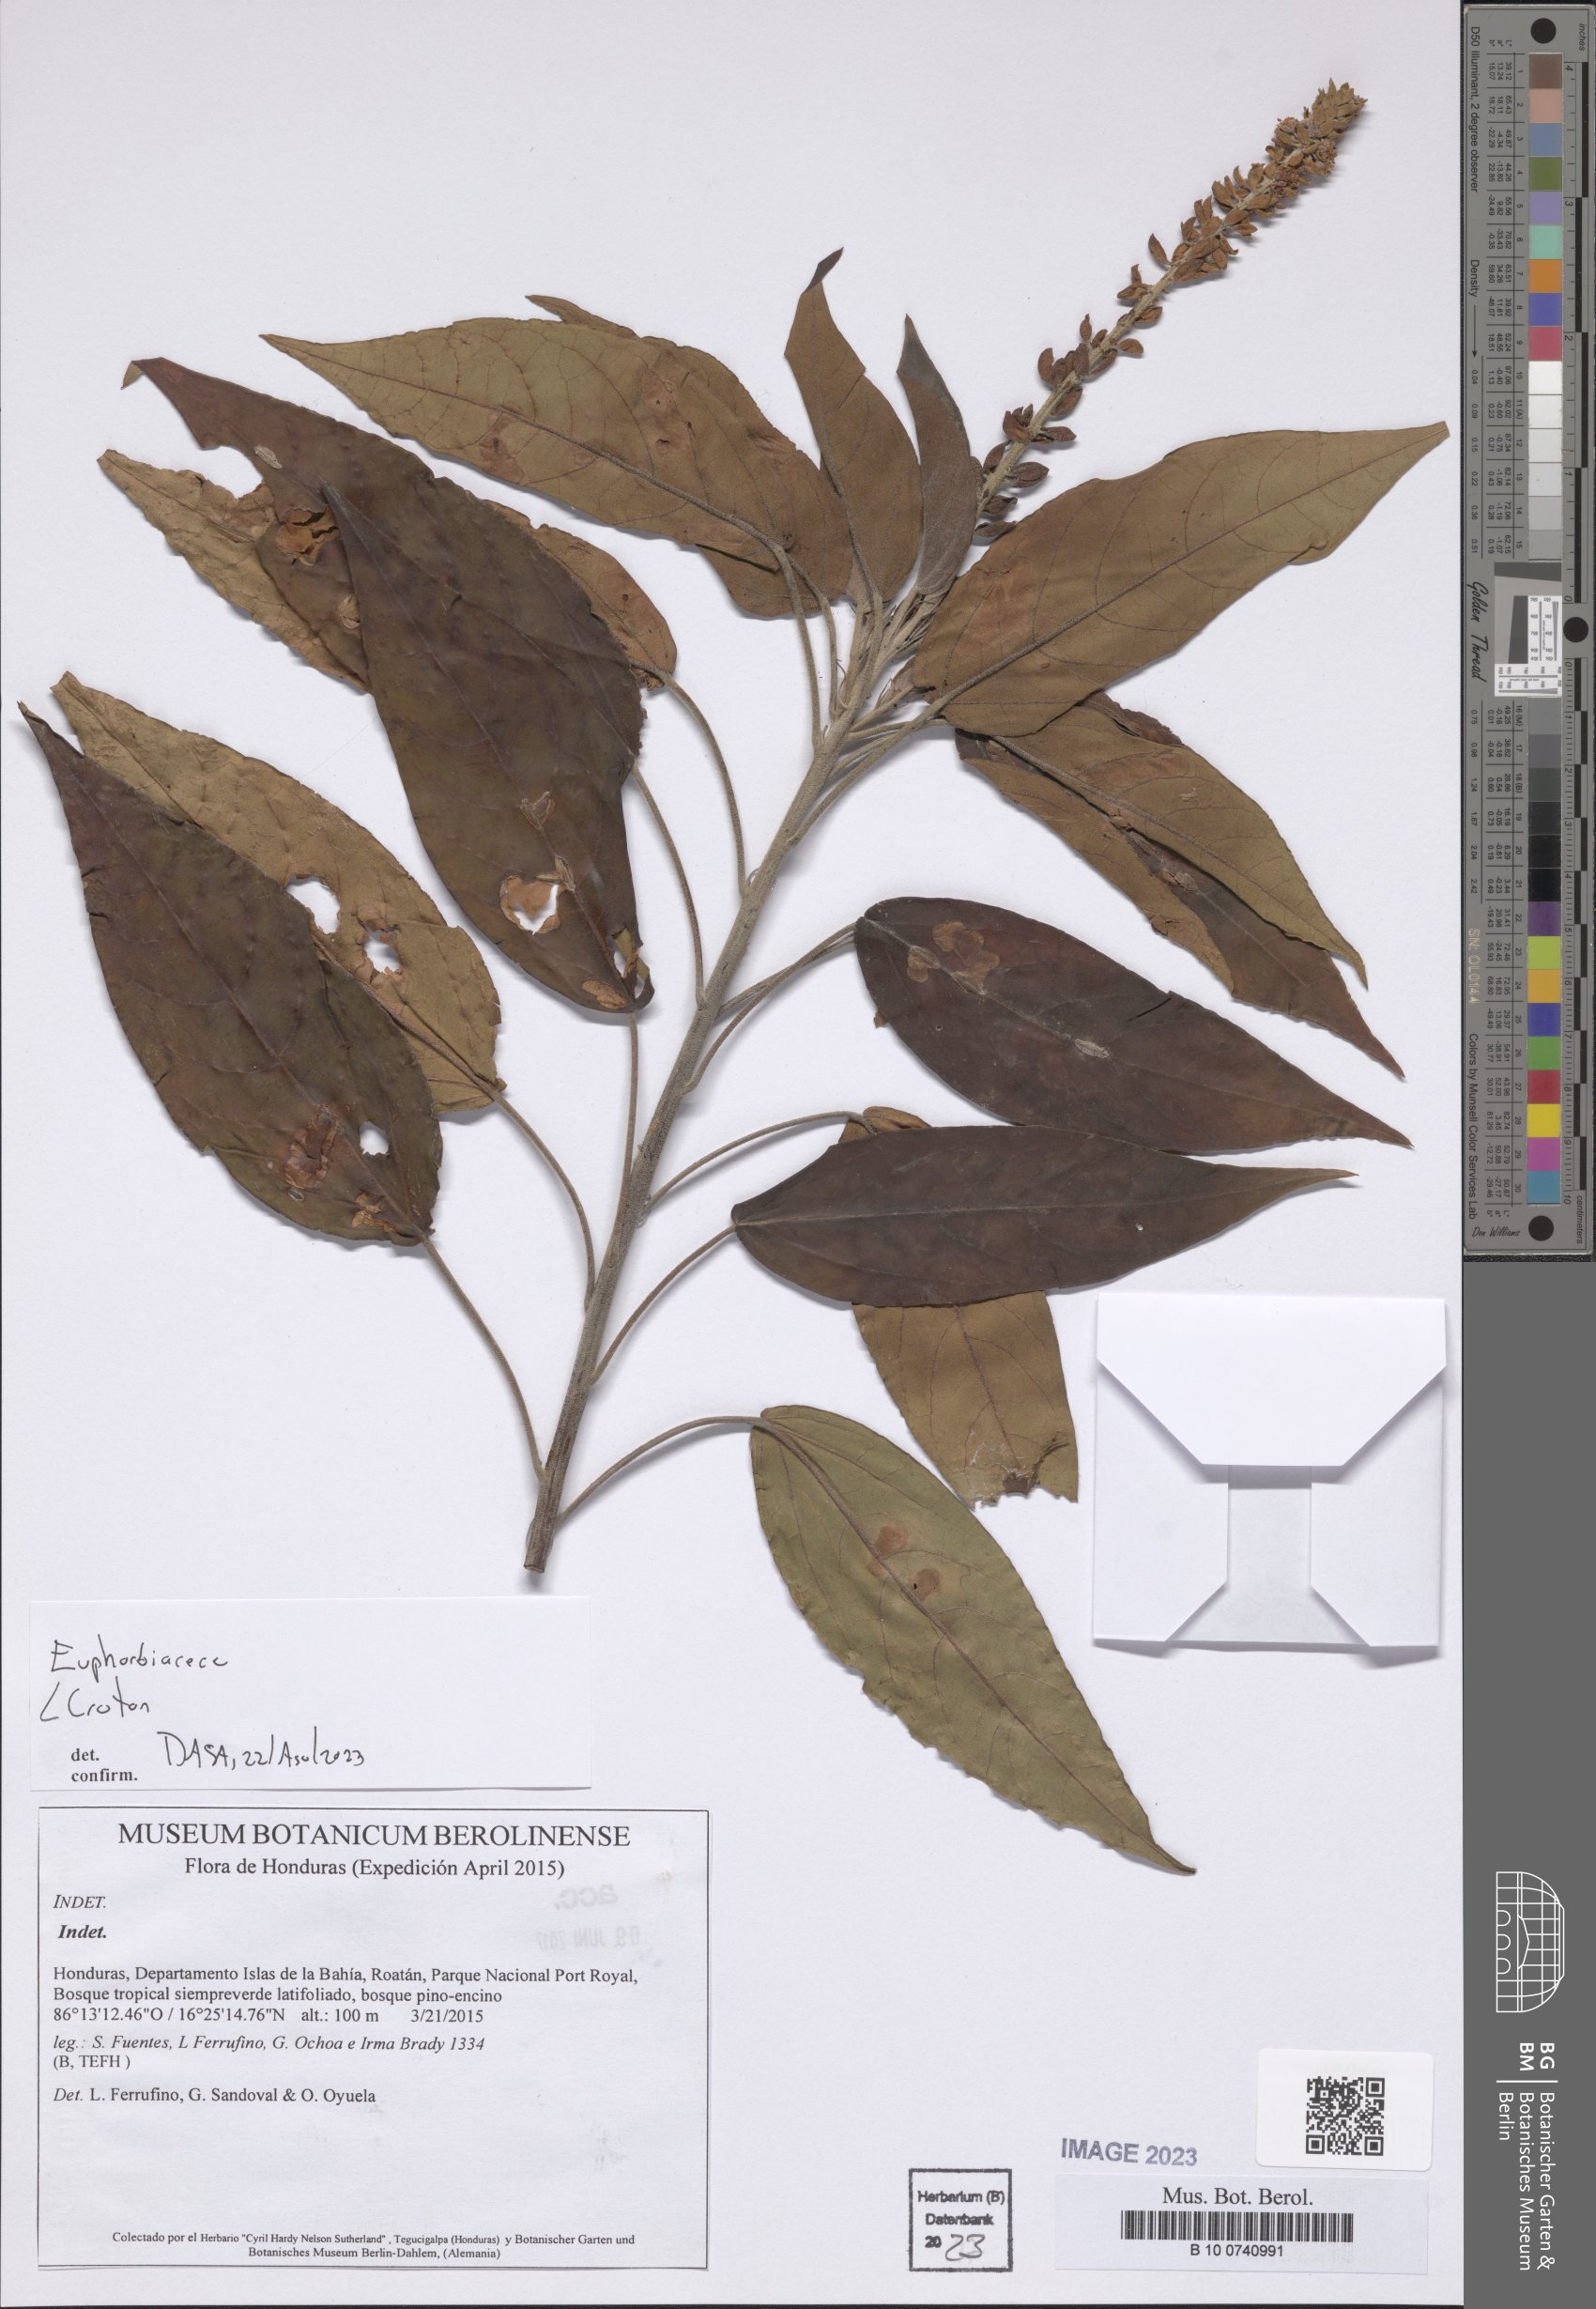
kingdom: Plantae
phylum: Tracheophyta
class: Magnoliopsida
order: Malpighiales
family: Euphorbiaceae
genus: Croton
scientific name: Croton
